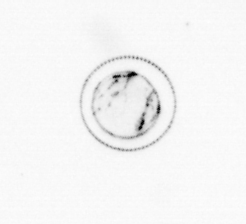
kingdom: Chromista
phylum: Myzozoa
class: Dinophyceae
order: Noctilucales
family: Noctilucaceae
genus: Noctiluca
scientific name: Noctiluca scintillans
